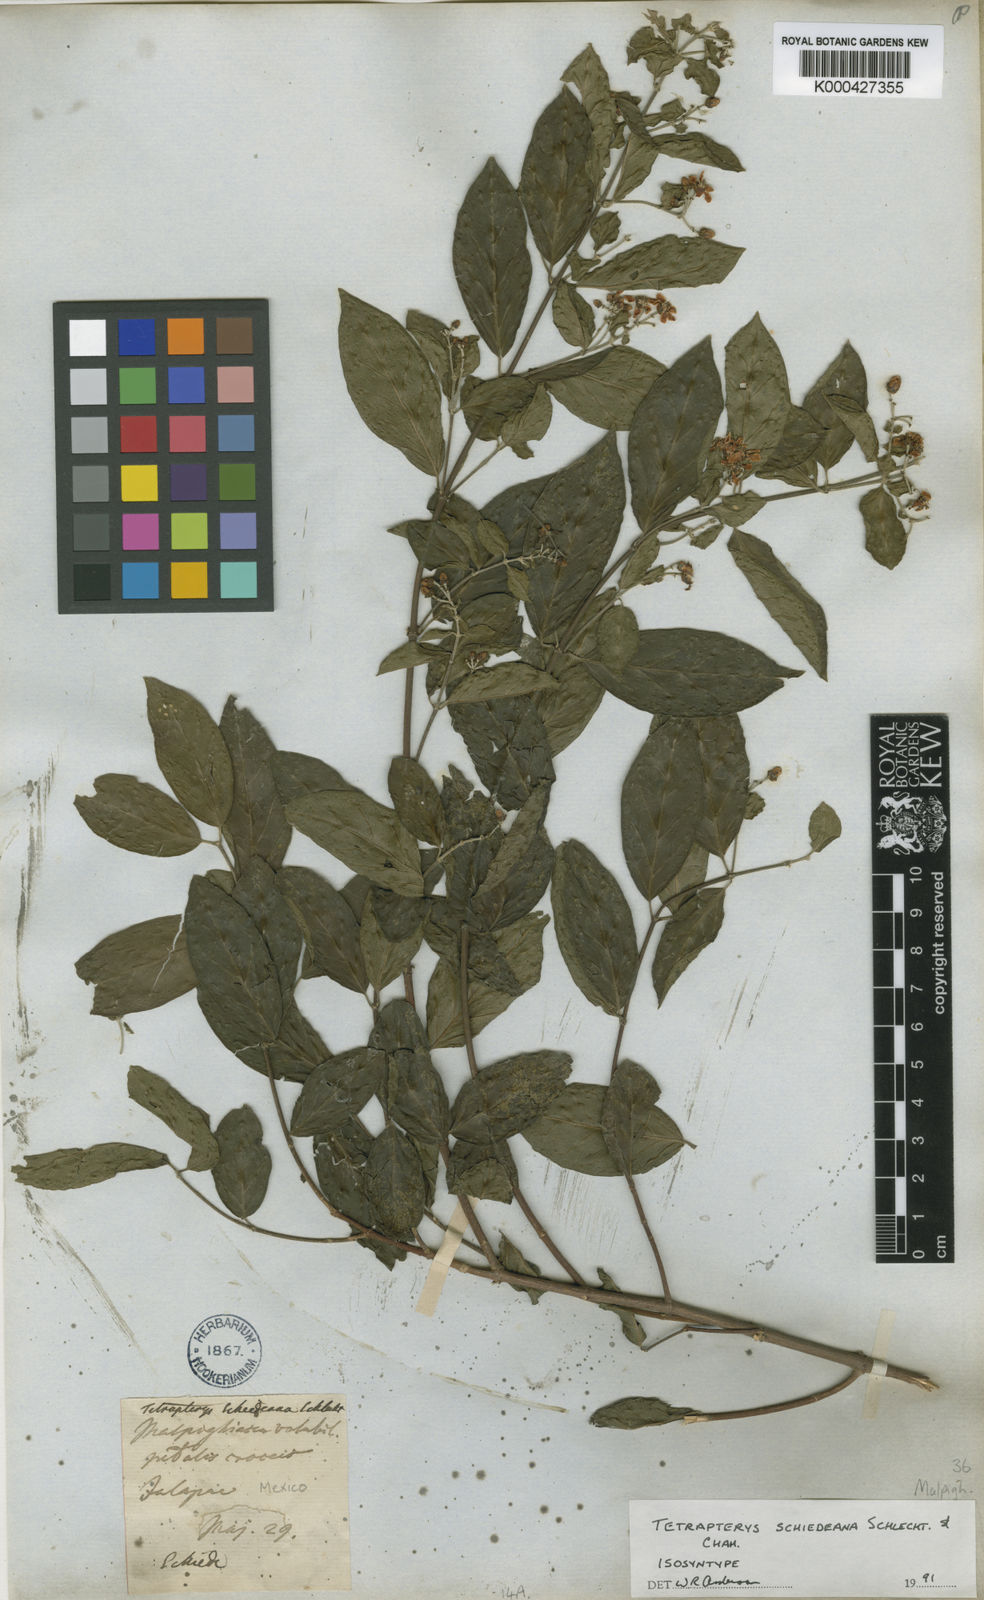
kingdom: Plantae
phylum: Tracheophyta
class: Magnoliopsida
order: Malpighiales
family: Malpighiaceae
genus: Tetrapterys
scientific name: Tetrapterys schiedeana
